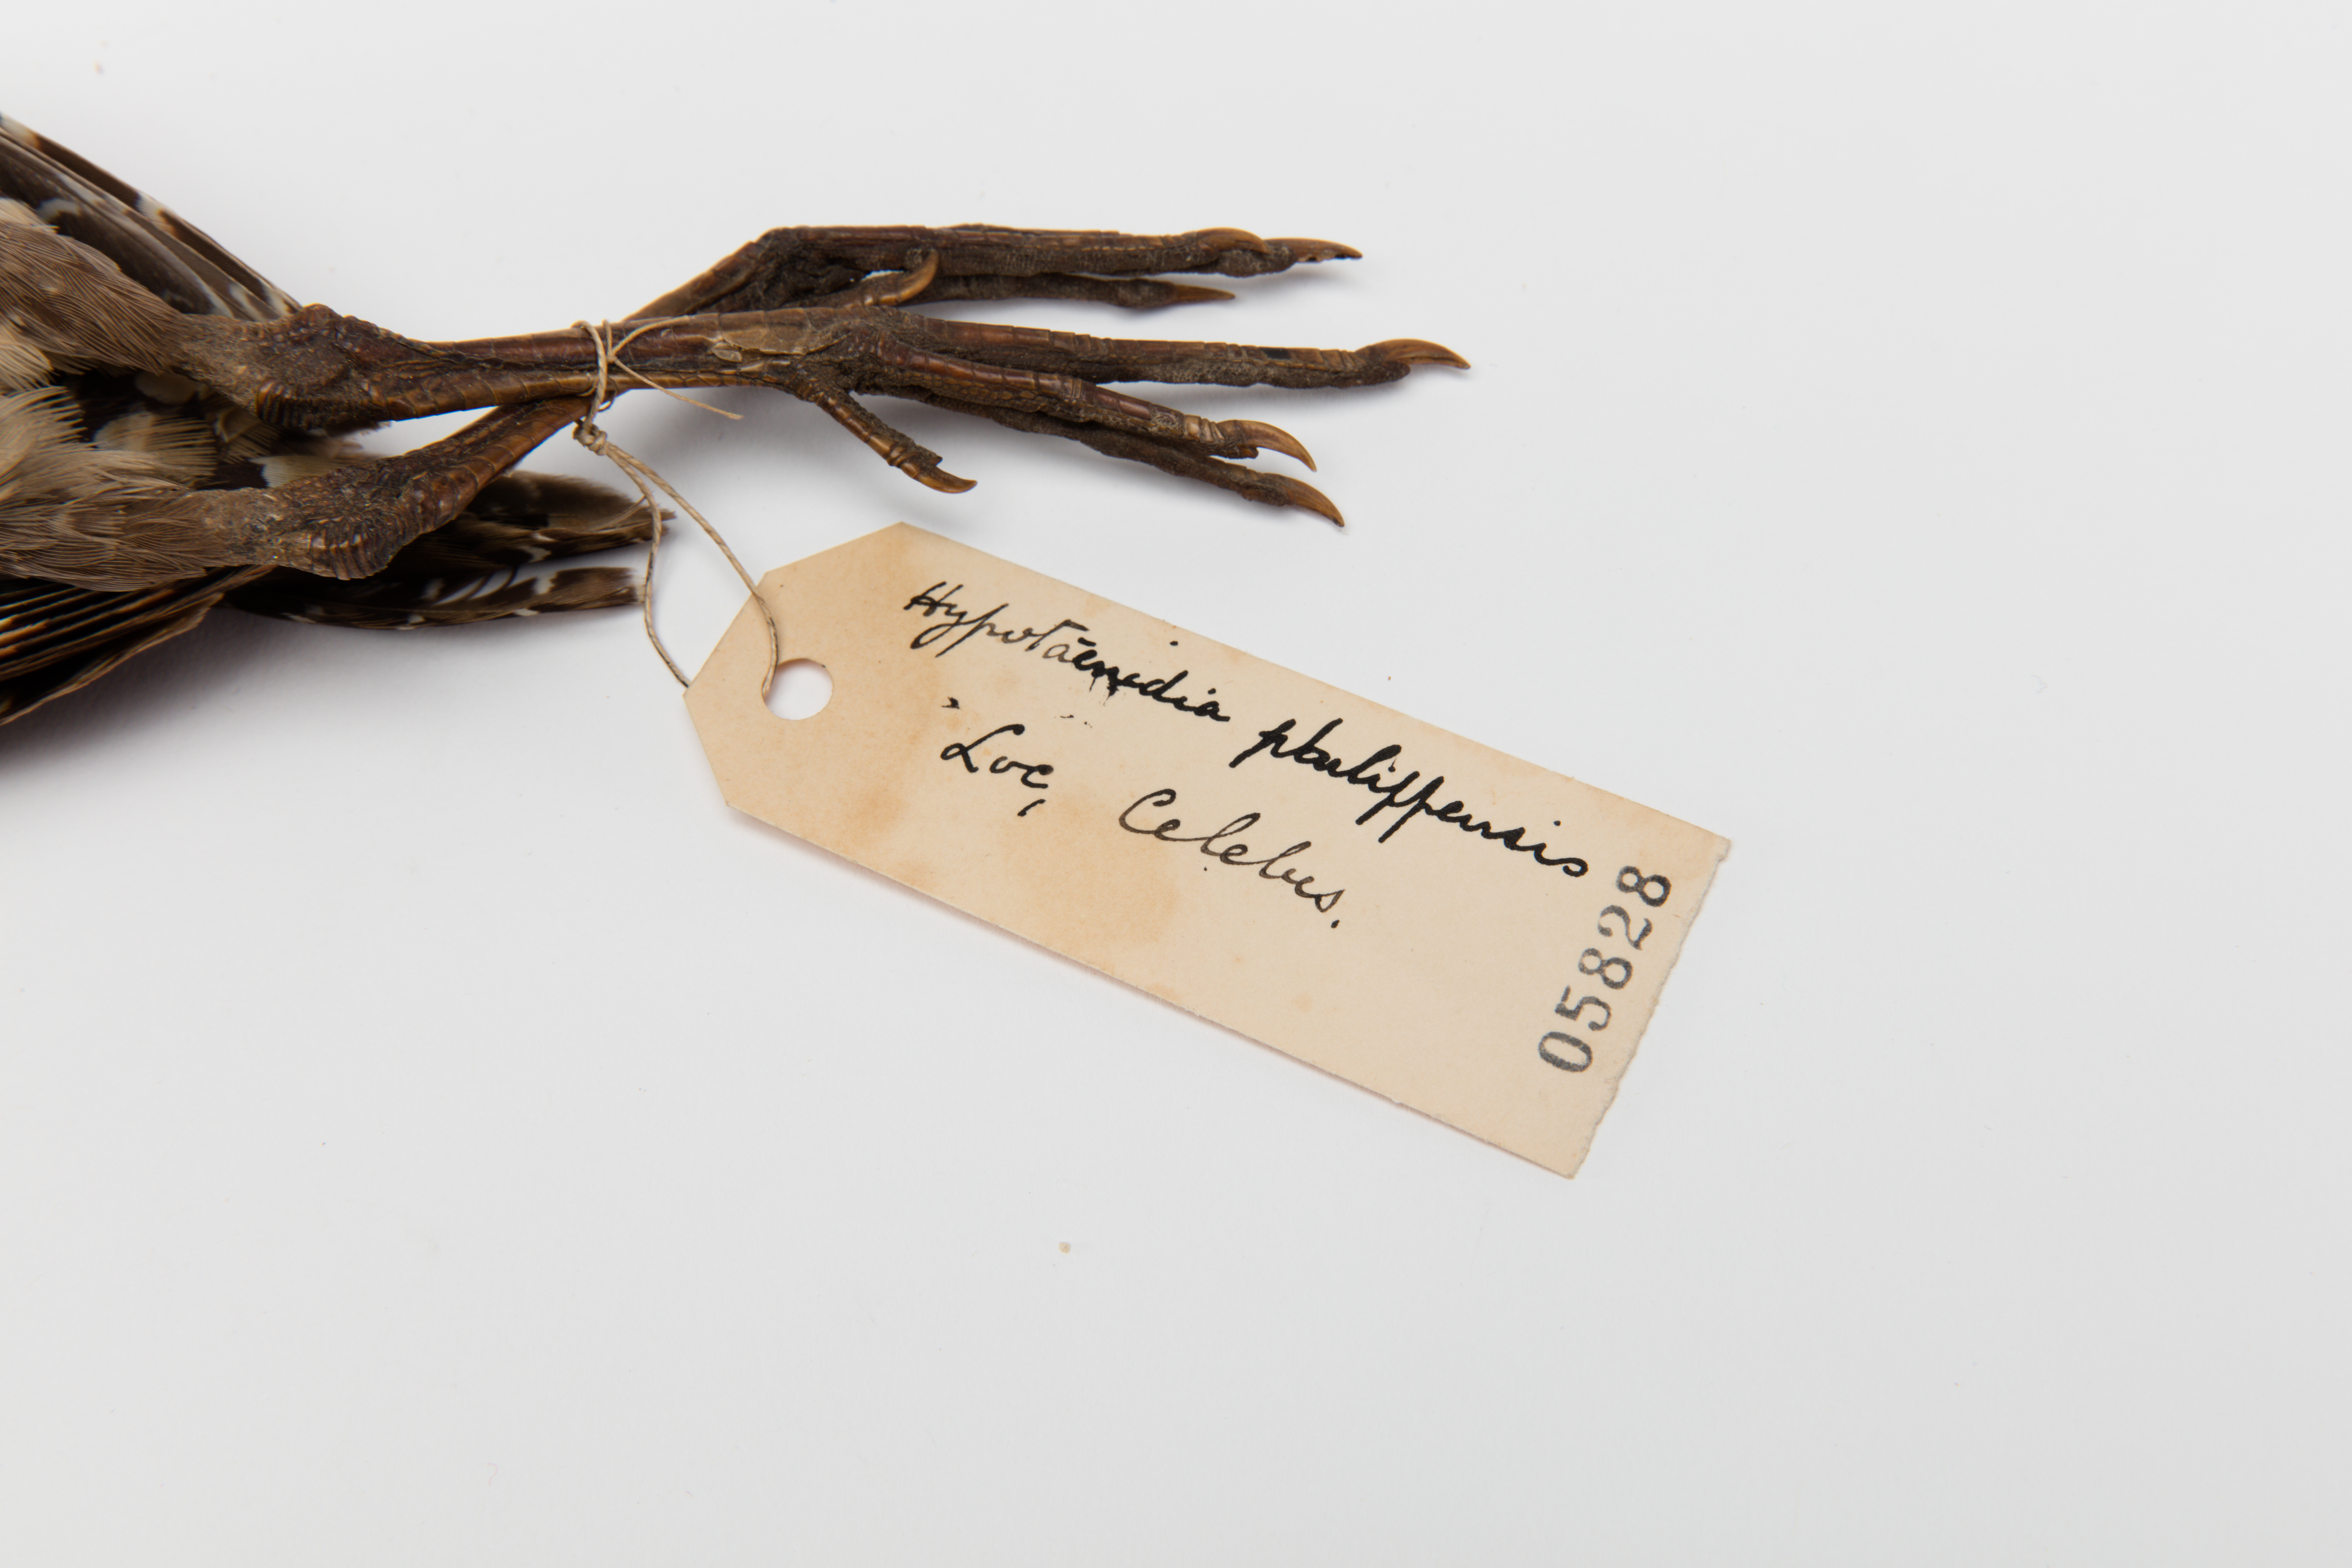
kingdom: Animalia
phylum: Chordata
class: Aves
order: Gruiformes
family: Rallidae
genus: Gallirallus
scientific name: Gallirallus philippensis
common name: Buff-banded rail
